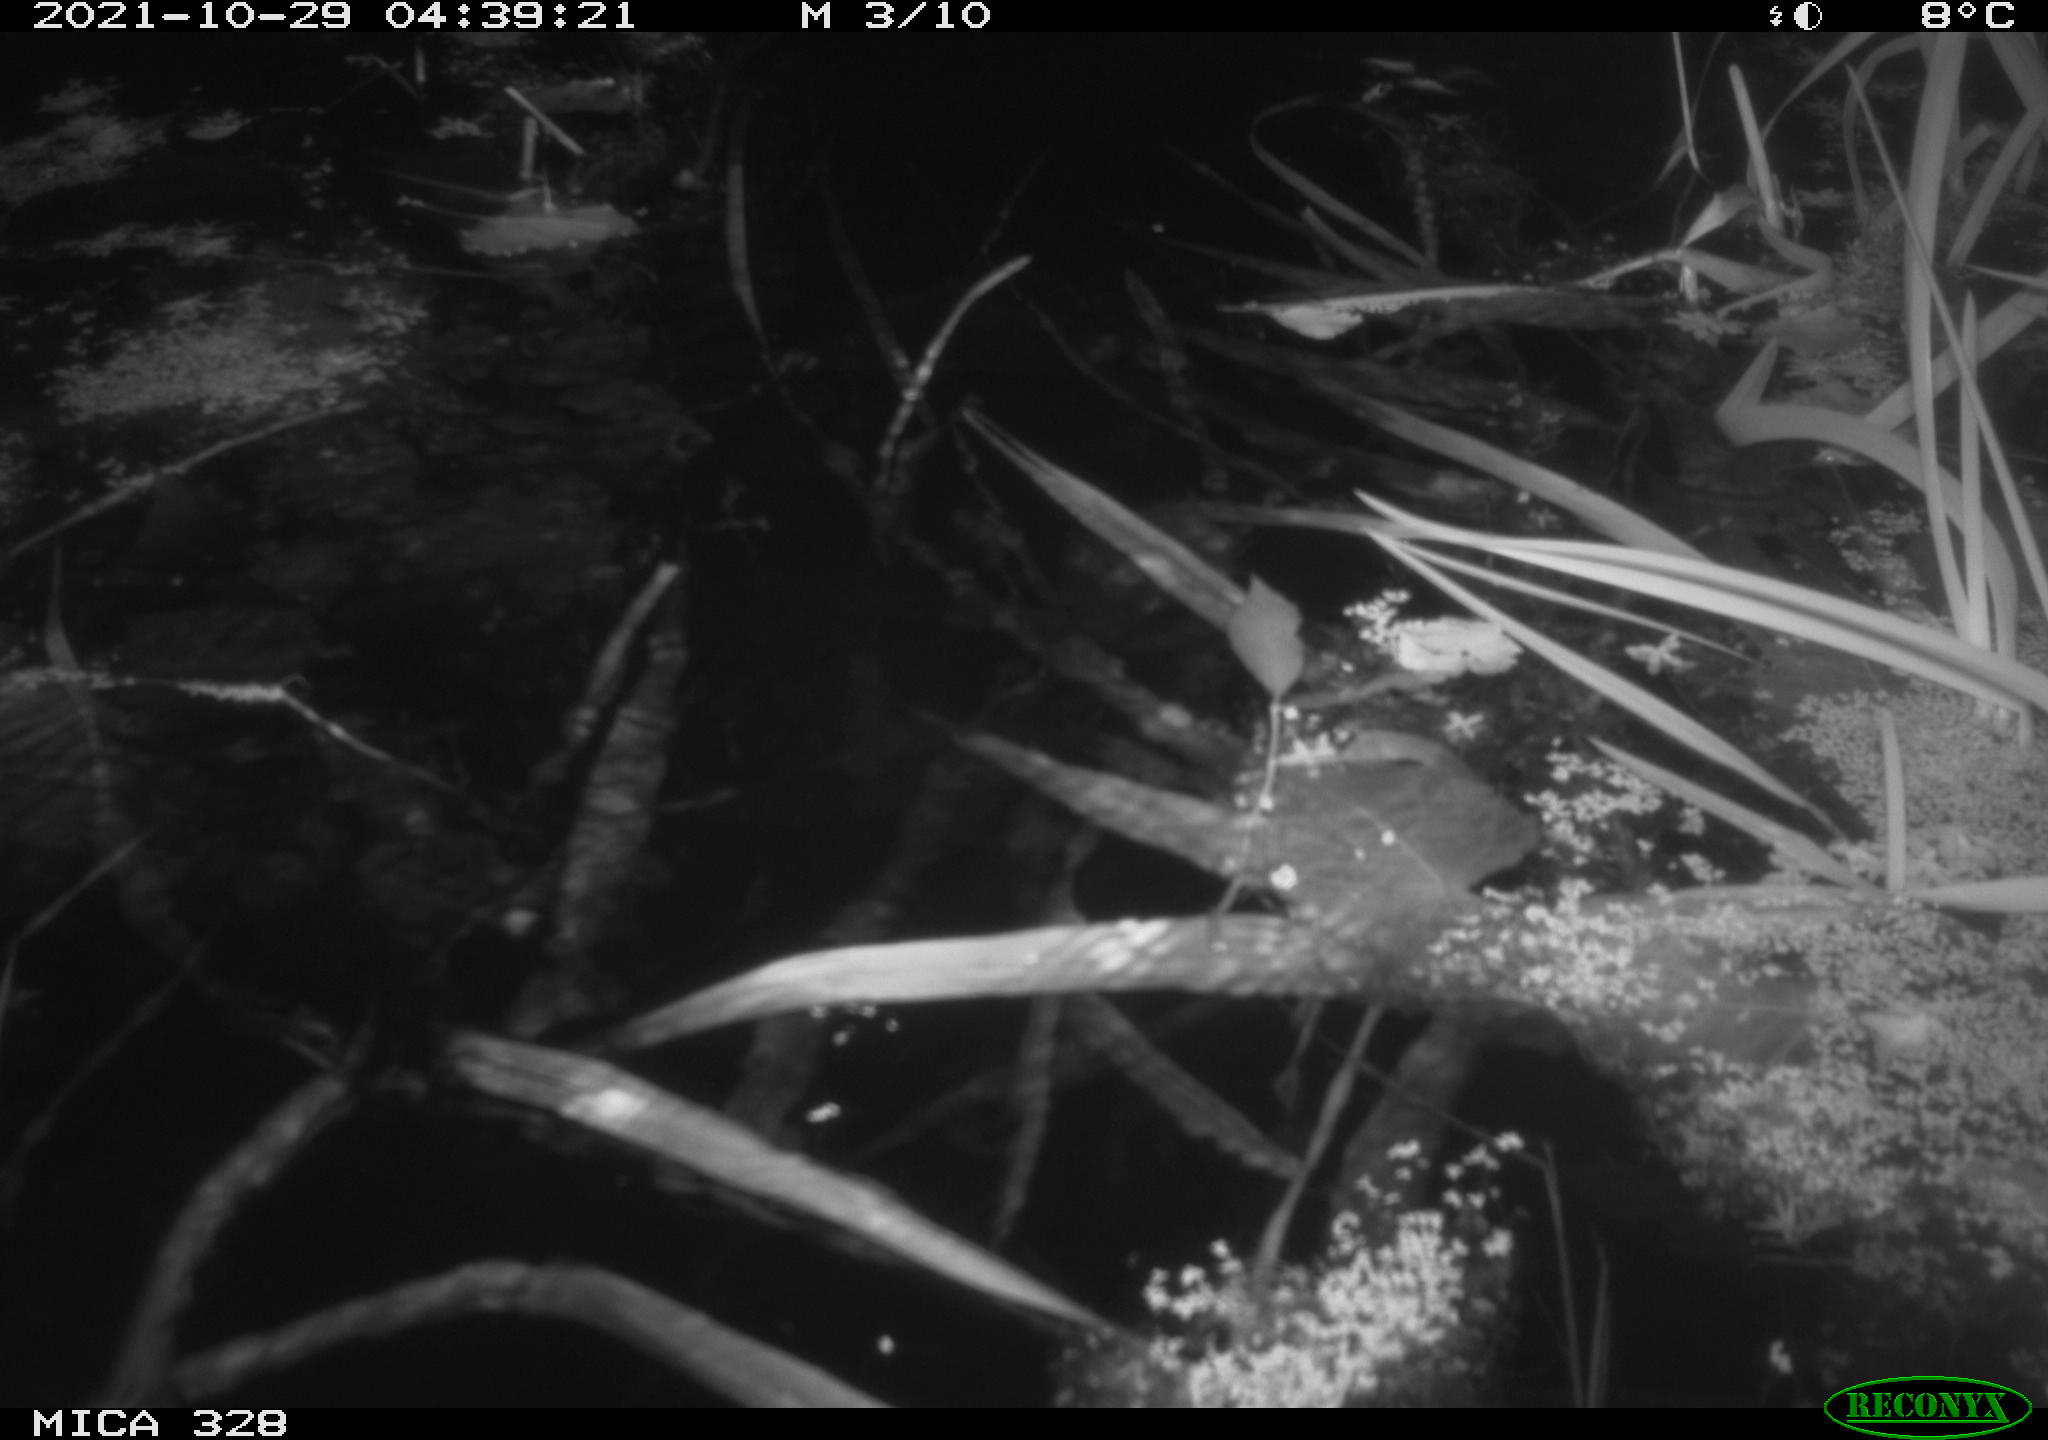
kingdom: Animalia
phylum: Chordata
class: Mammalia
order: Rodentia
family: Cricetidae
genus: Ondatra
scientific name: Ondatra zibethicus
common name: Muskrat
